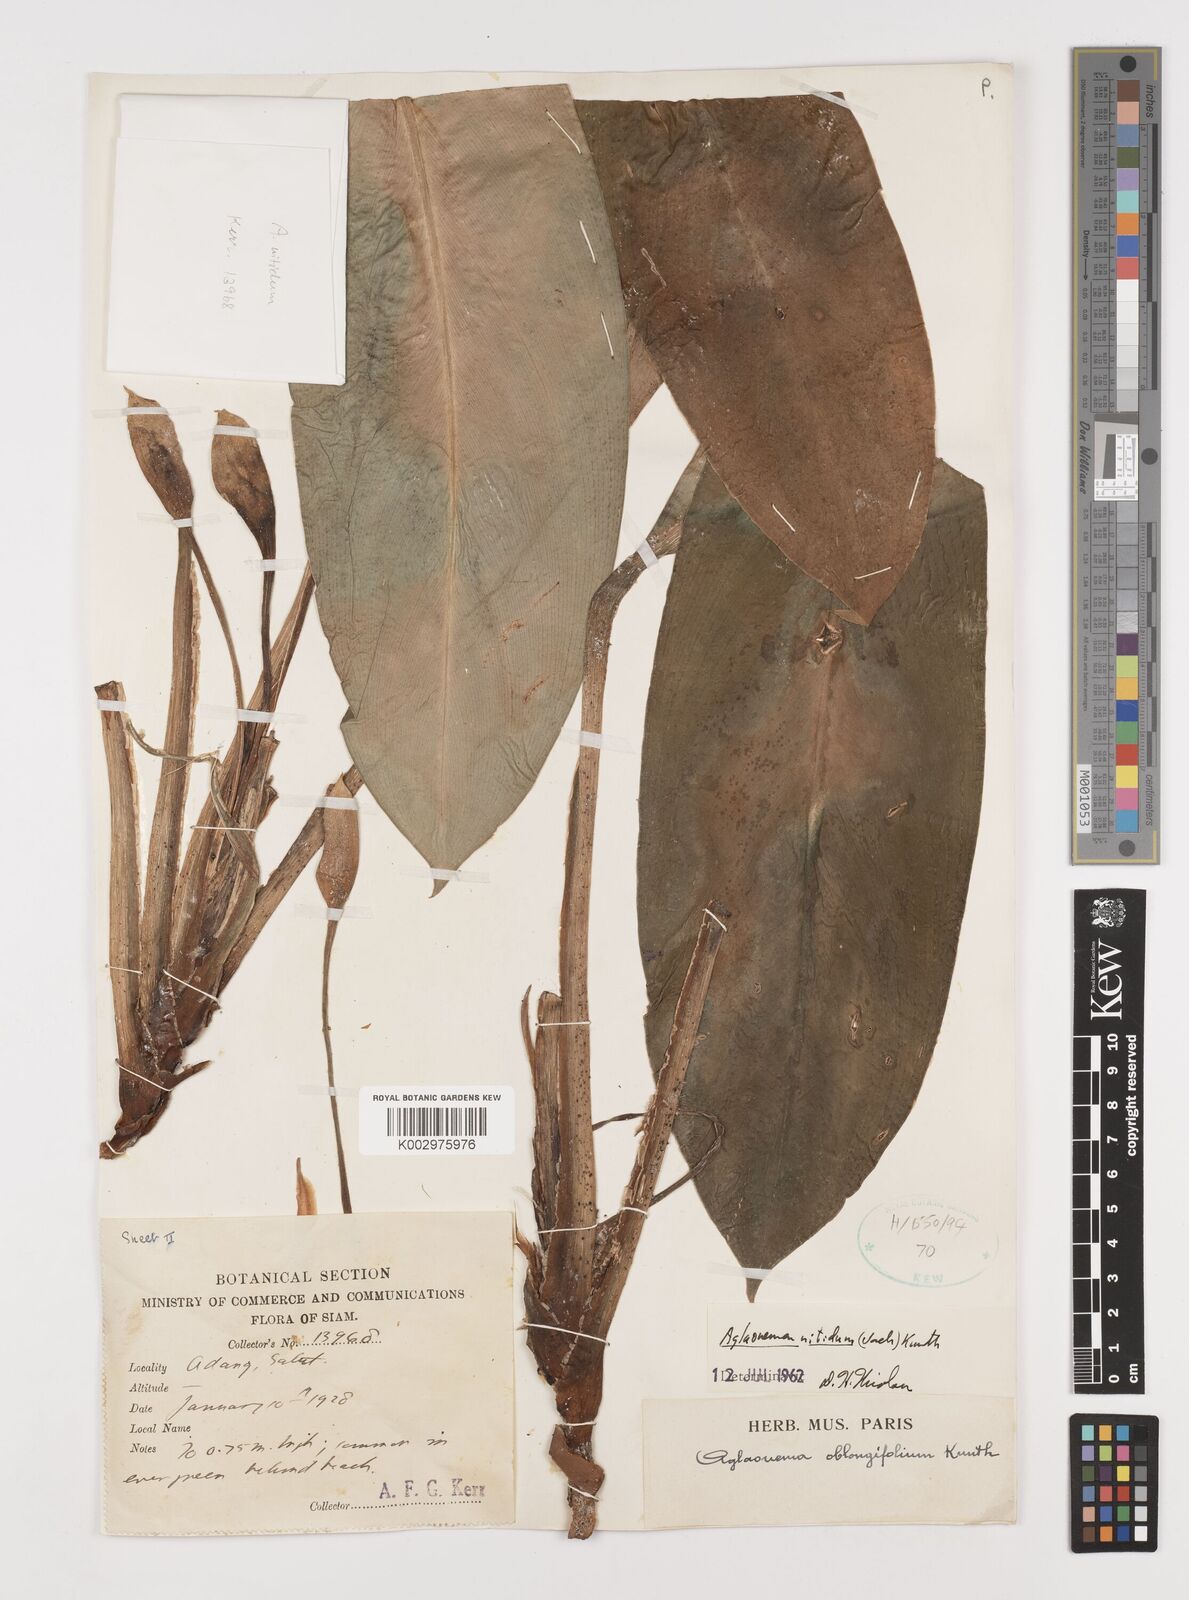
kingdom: Plantae
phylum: Tracheophyta
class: Liliopsida
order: Alismatales
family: Araceae
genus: Aglaonema
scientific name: Aglaonema nitidum
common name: Aglaonema aroid
